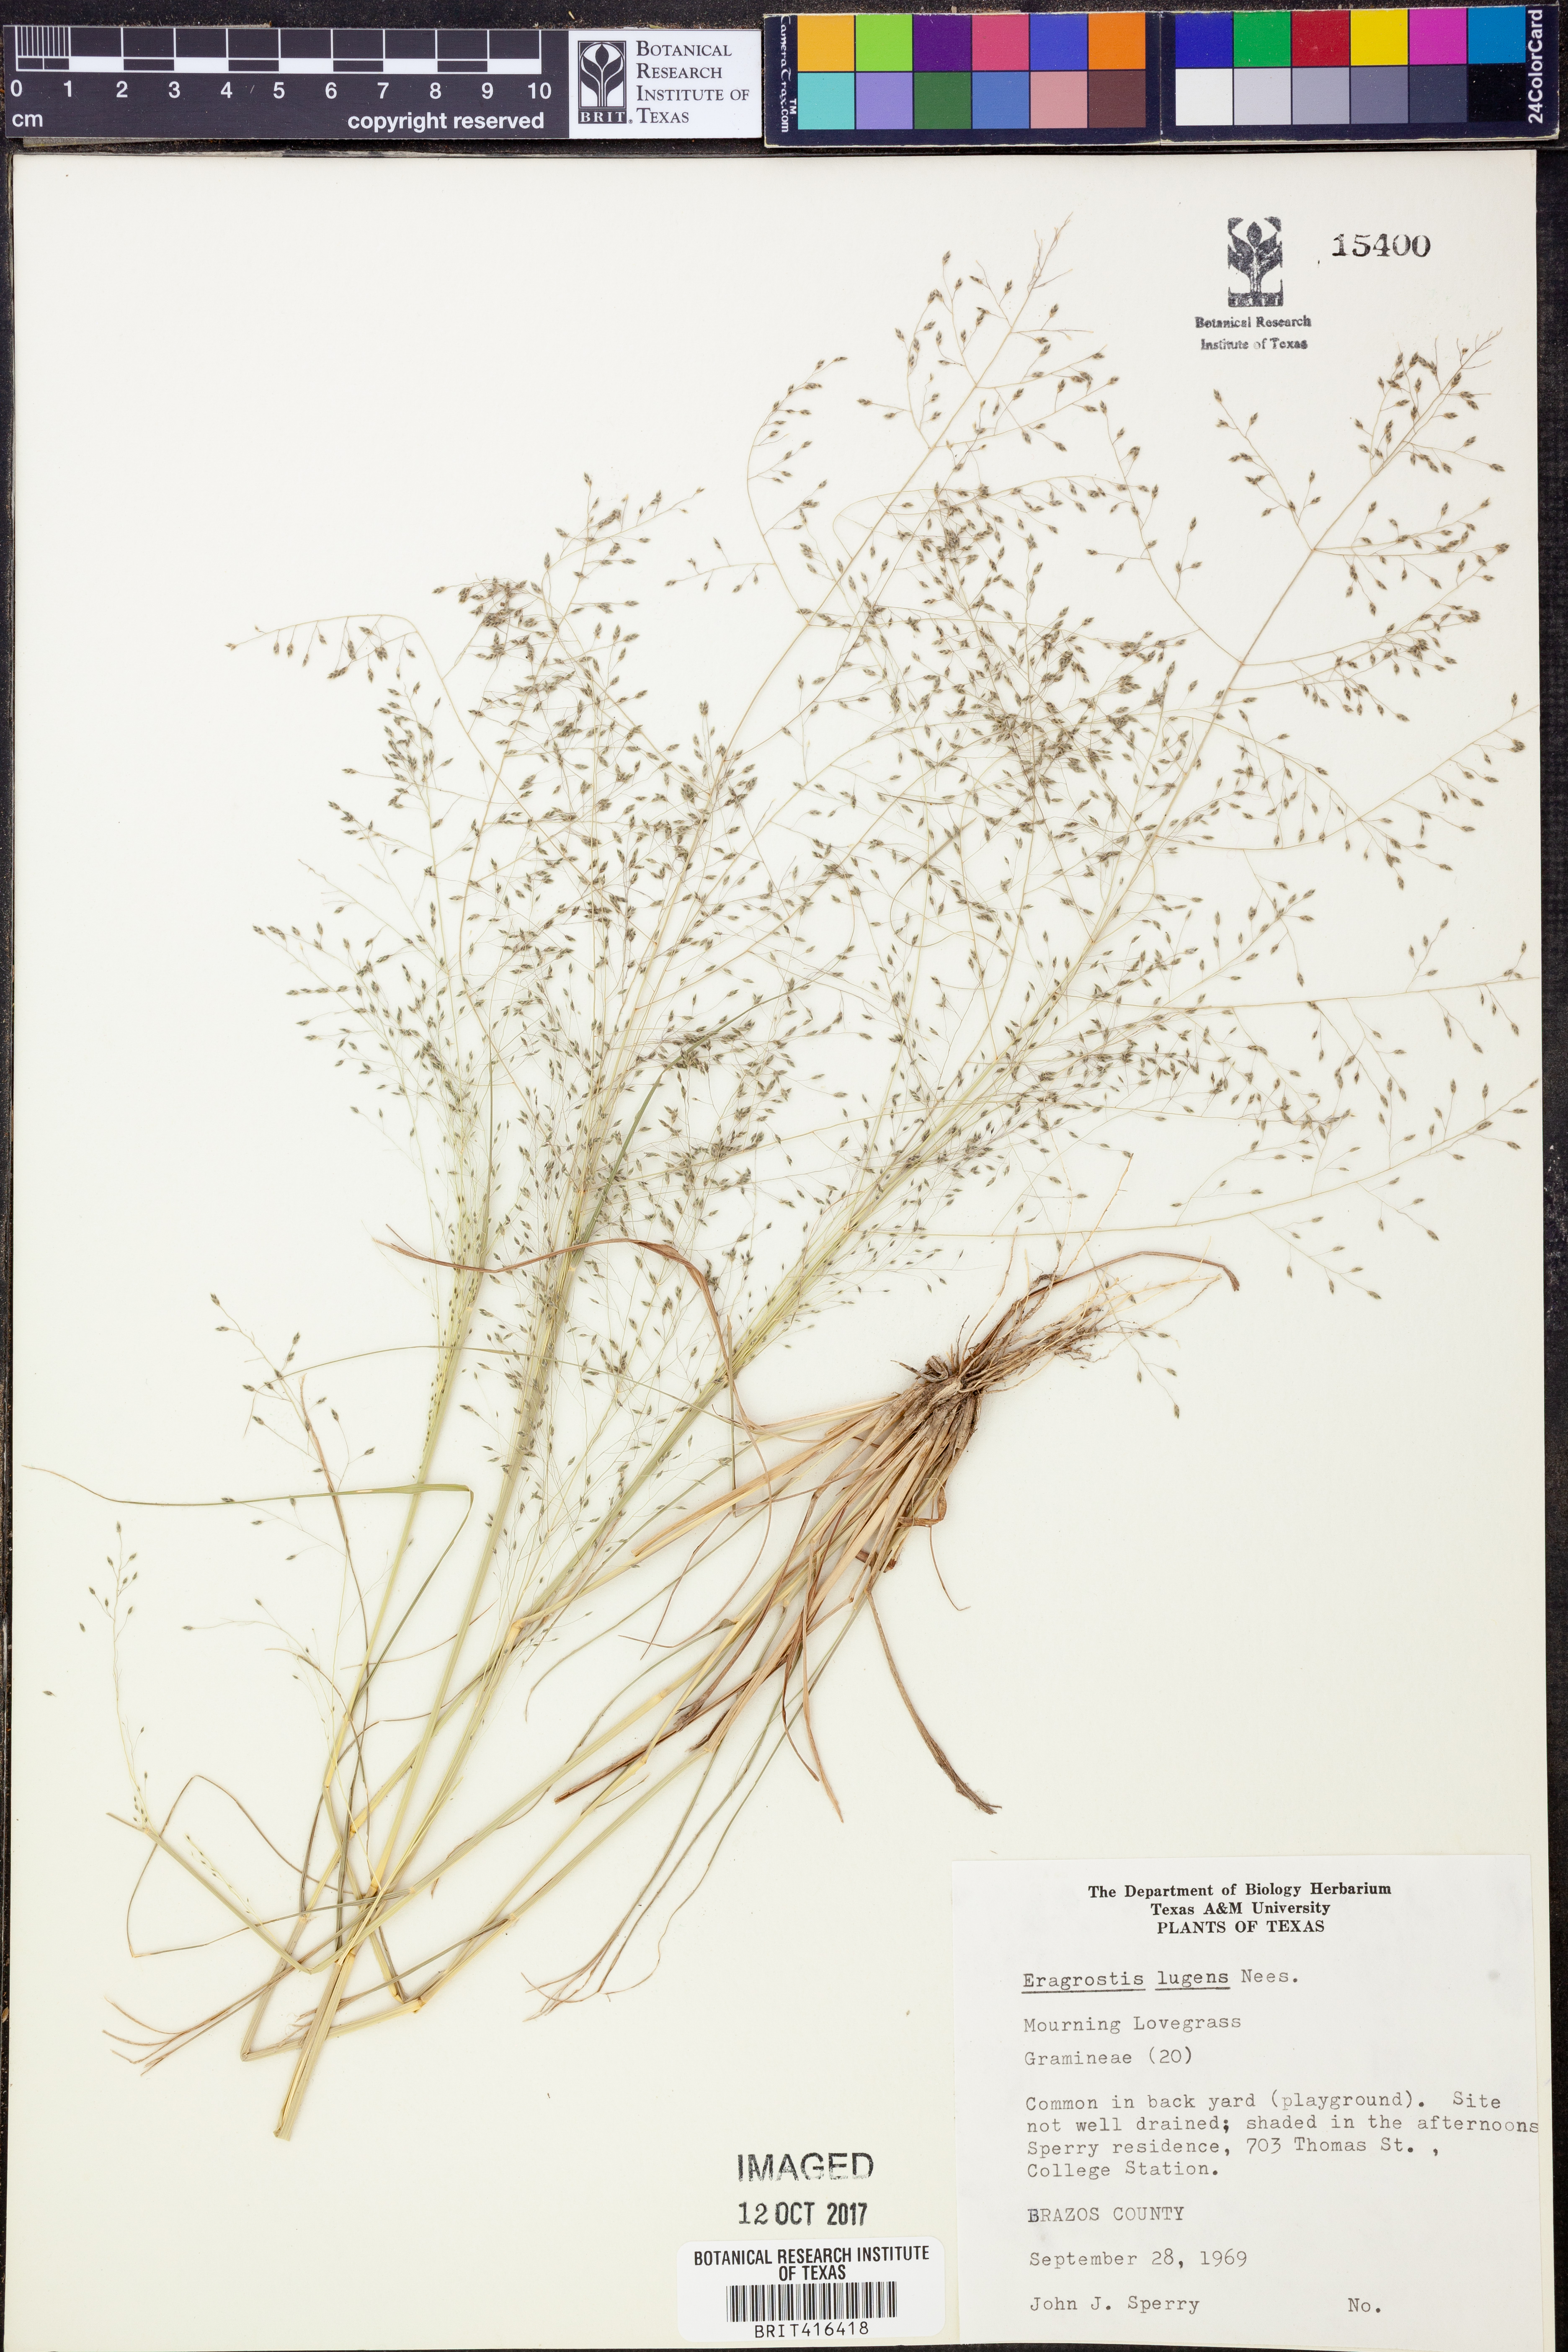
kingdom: Plantae
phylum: Tracheophyta
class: Liliopsida
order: Poales
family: Poaceae
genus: Eragrostis
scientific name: Eragrostis capillaris
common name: Hair-like lovegrass
